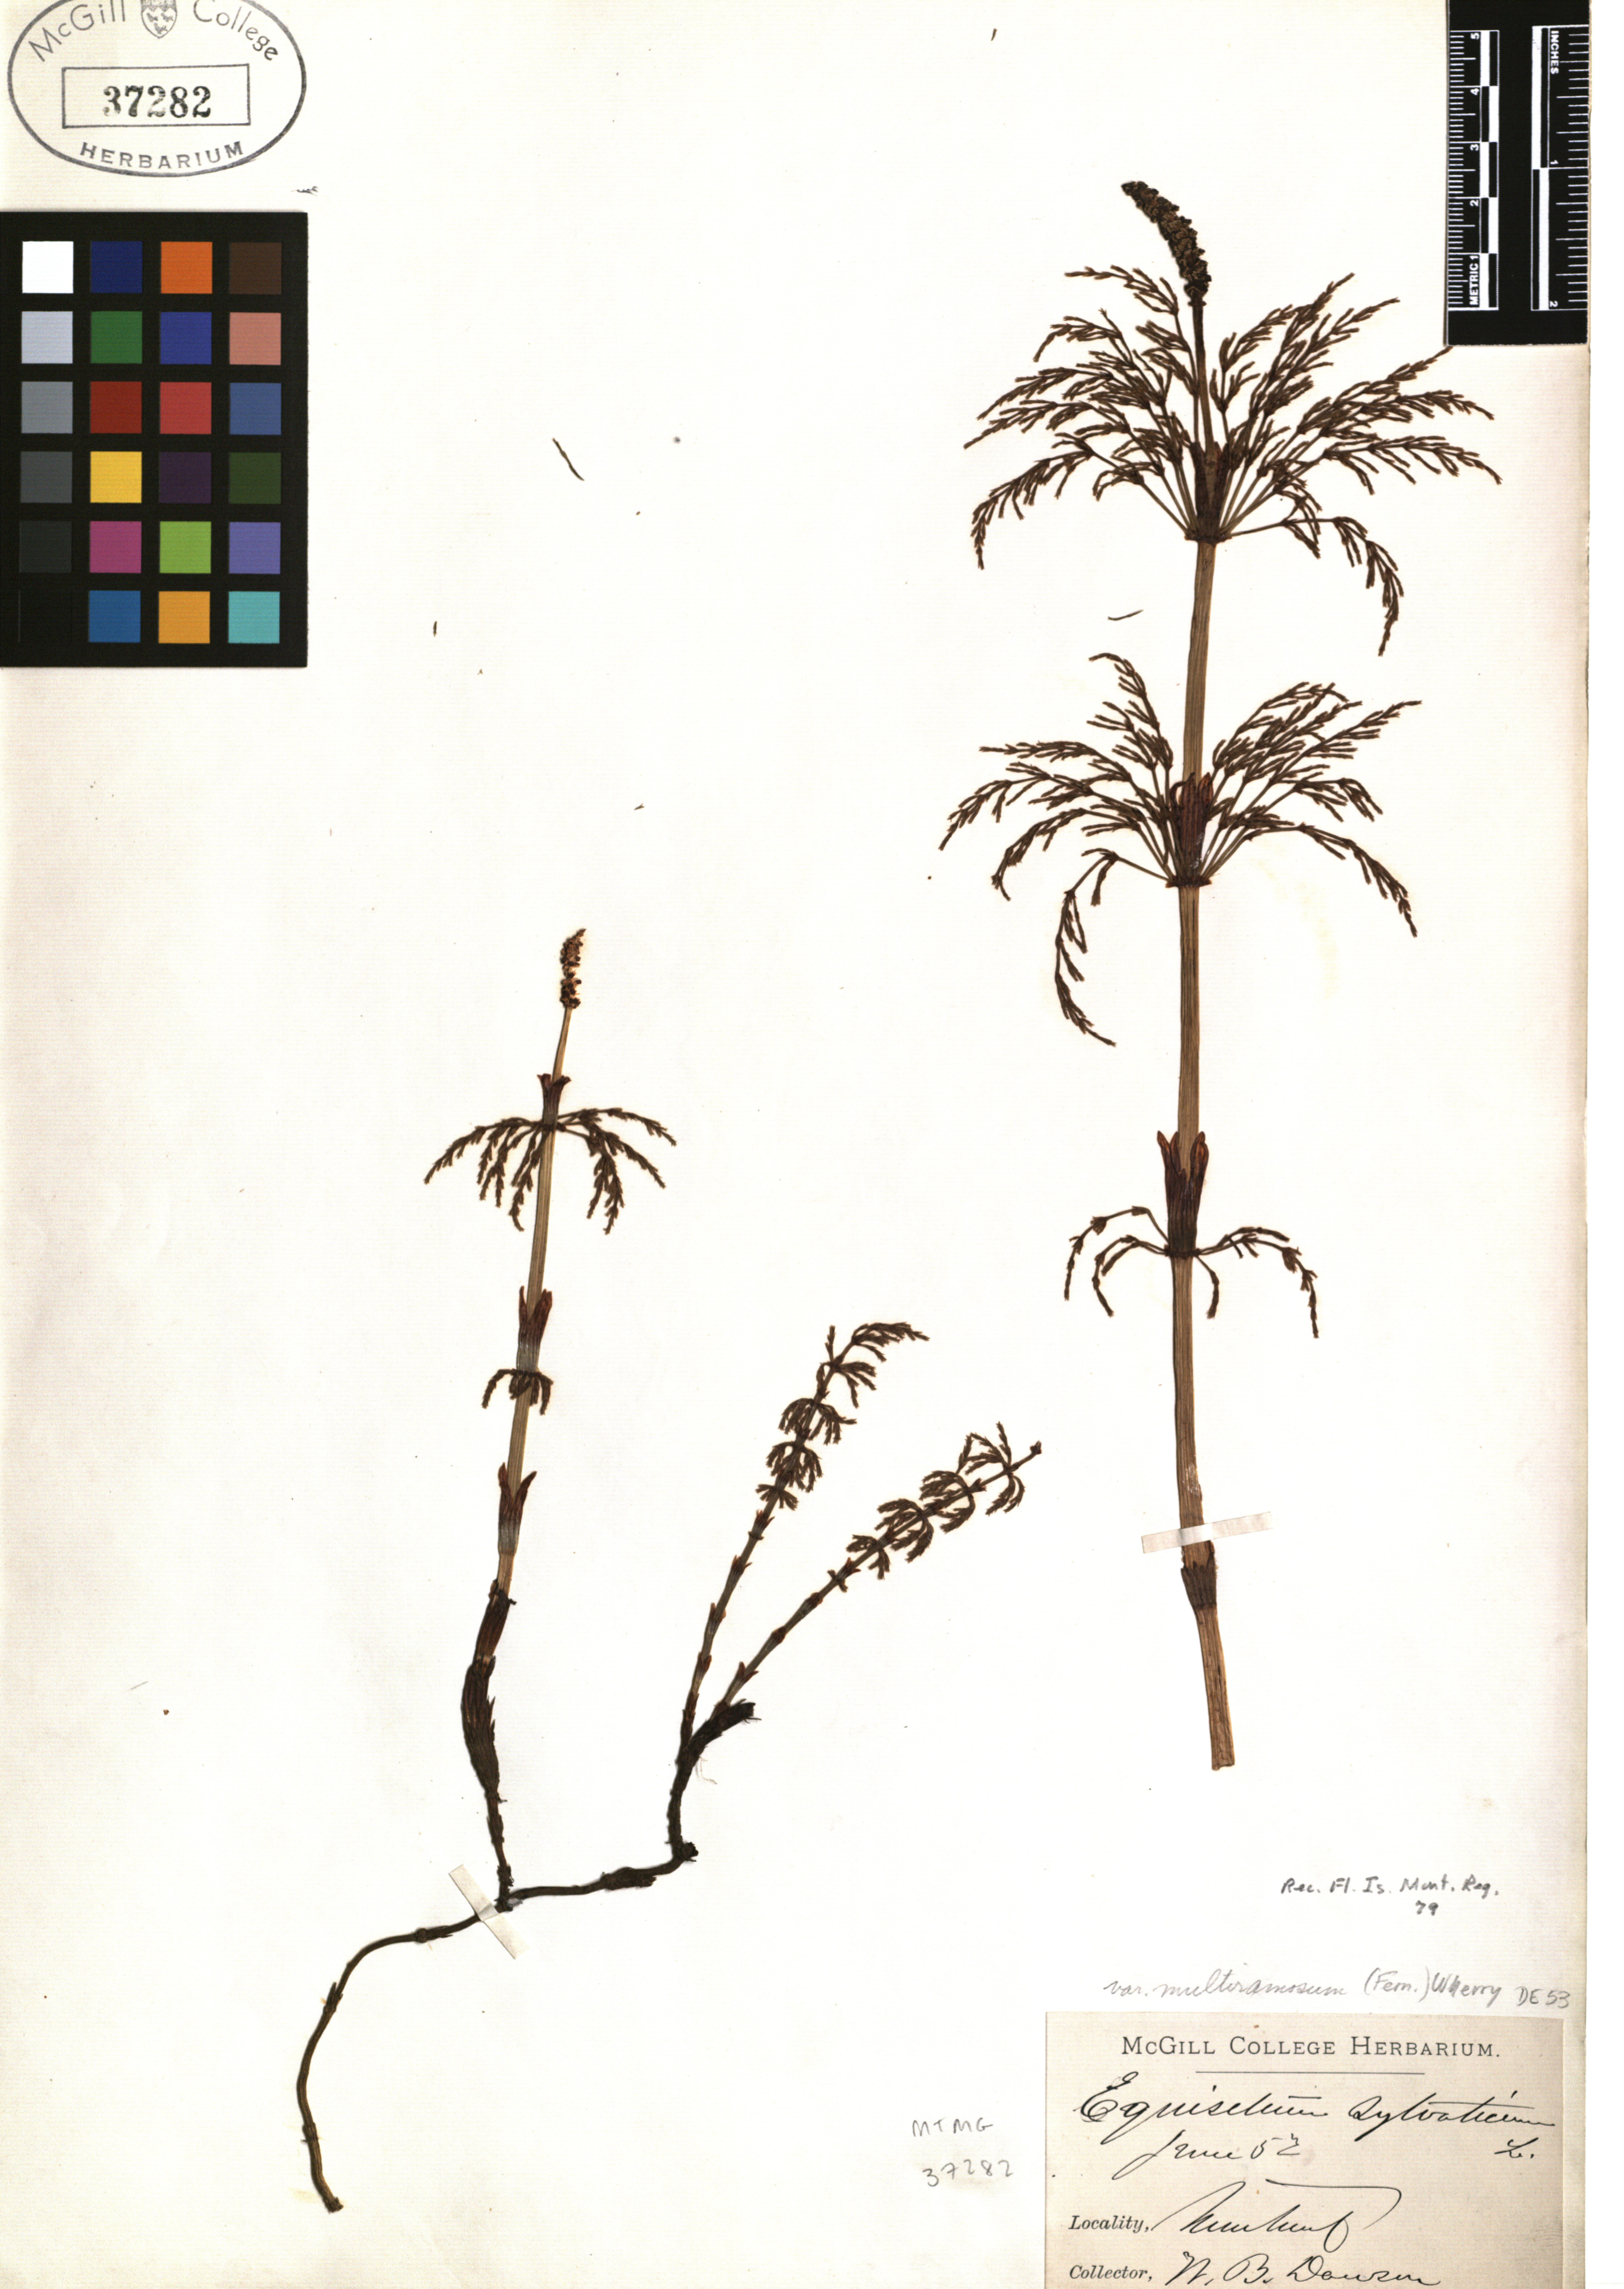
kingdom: Plantae
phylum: Tracheophyta
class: Polypodiopsida
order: Equisetales
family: Equisetaceae
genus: Equisetum
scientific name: Equisetum sylvaticum
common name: Wood horsetail
